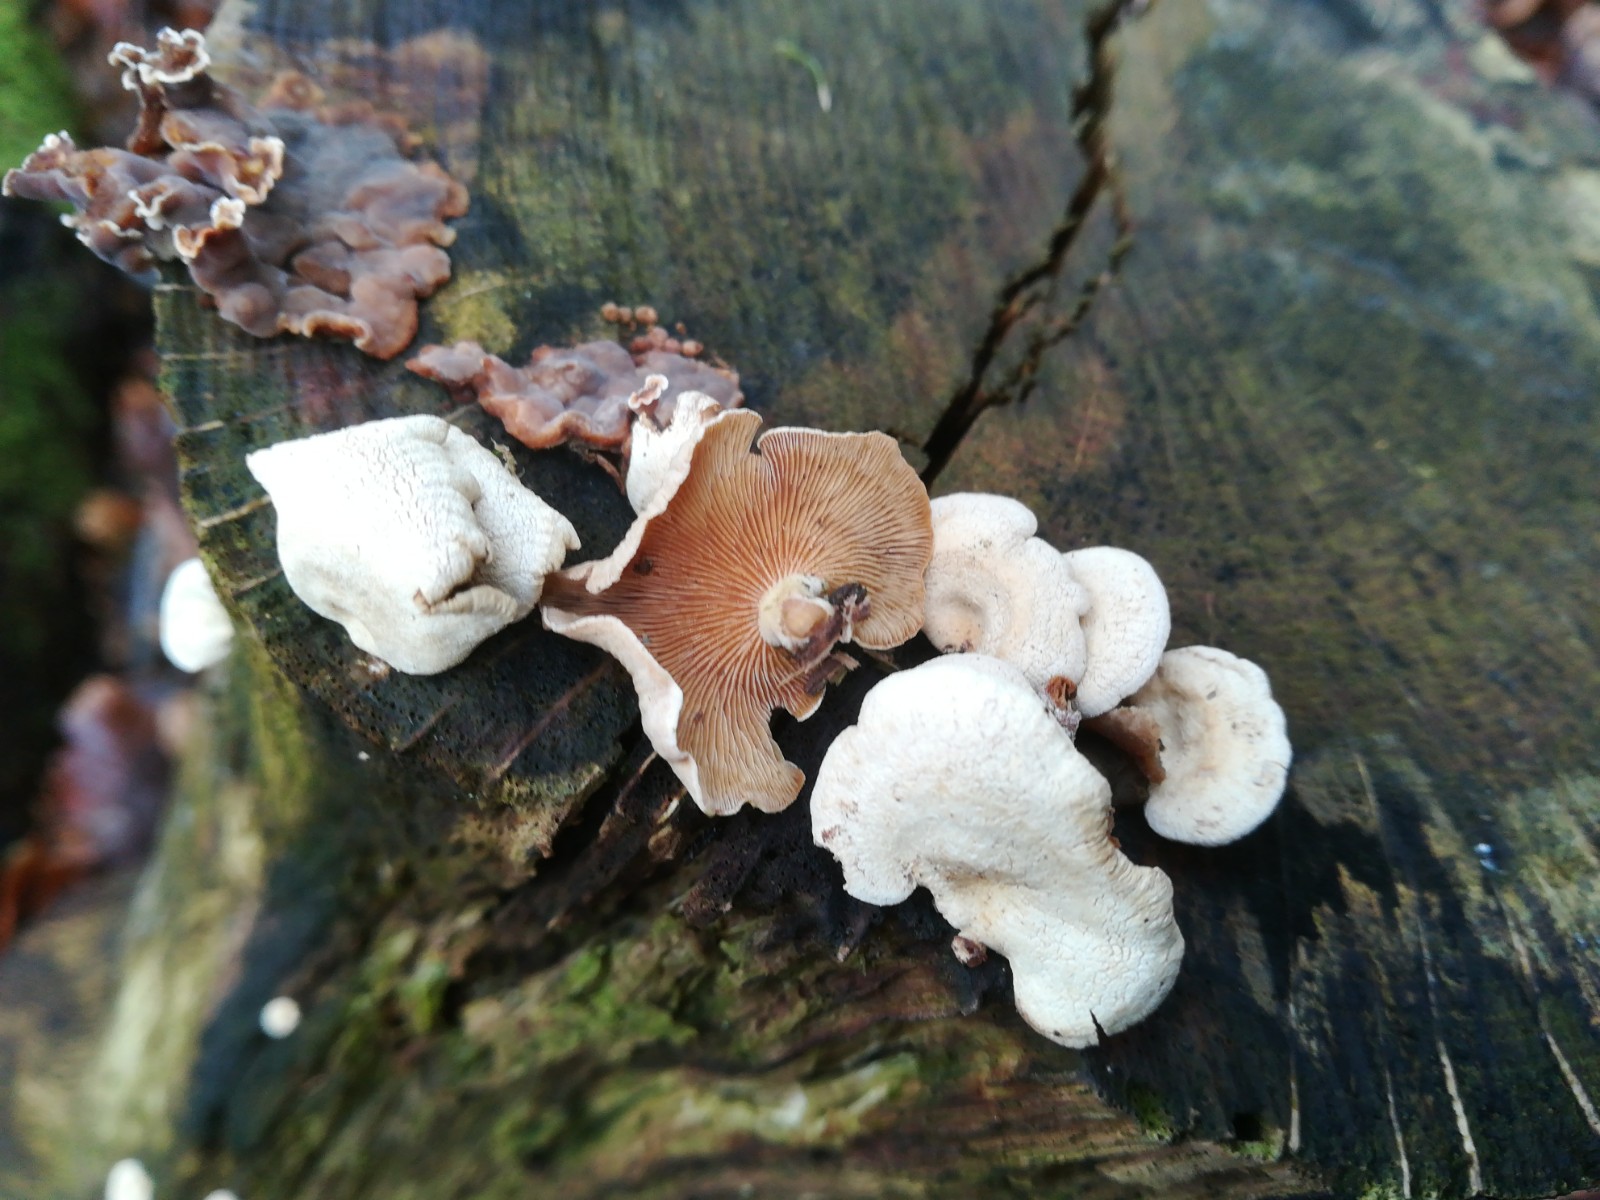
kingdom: Fungi
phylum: Basidiomycota
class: Agaricomycetes
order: Agaricales
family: Mycenaceae
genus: Panellus
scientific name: Panellus stipticus
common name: kliddet epaulethat
